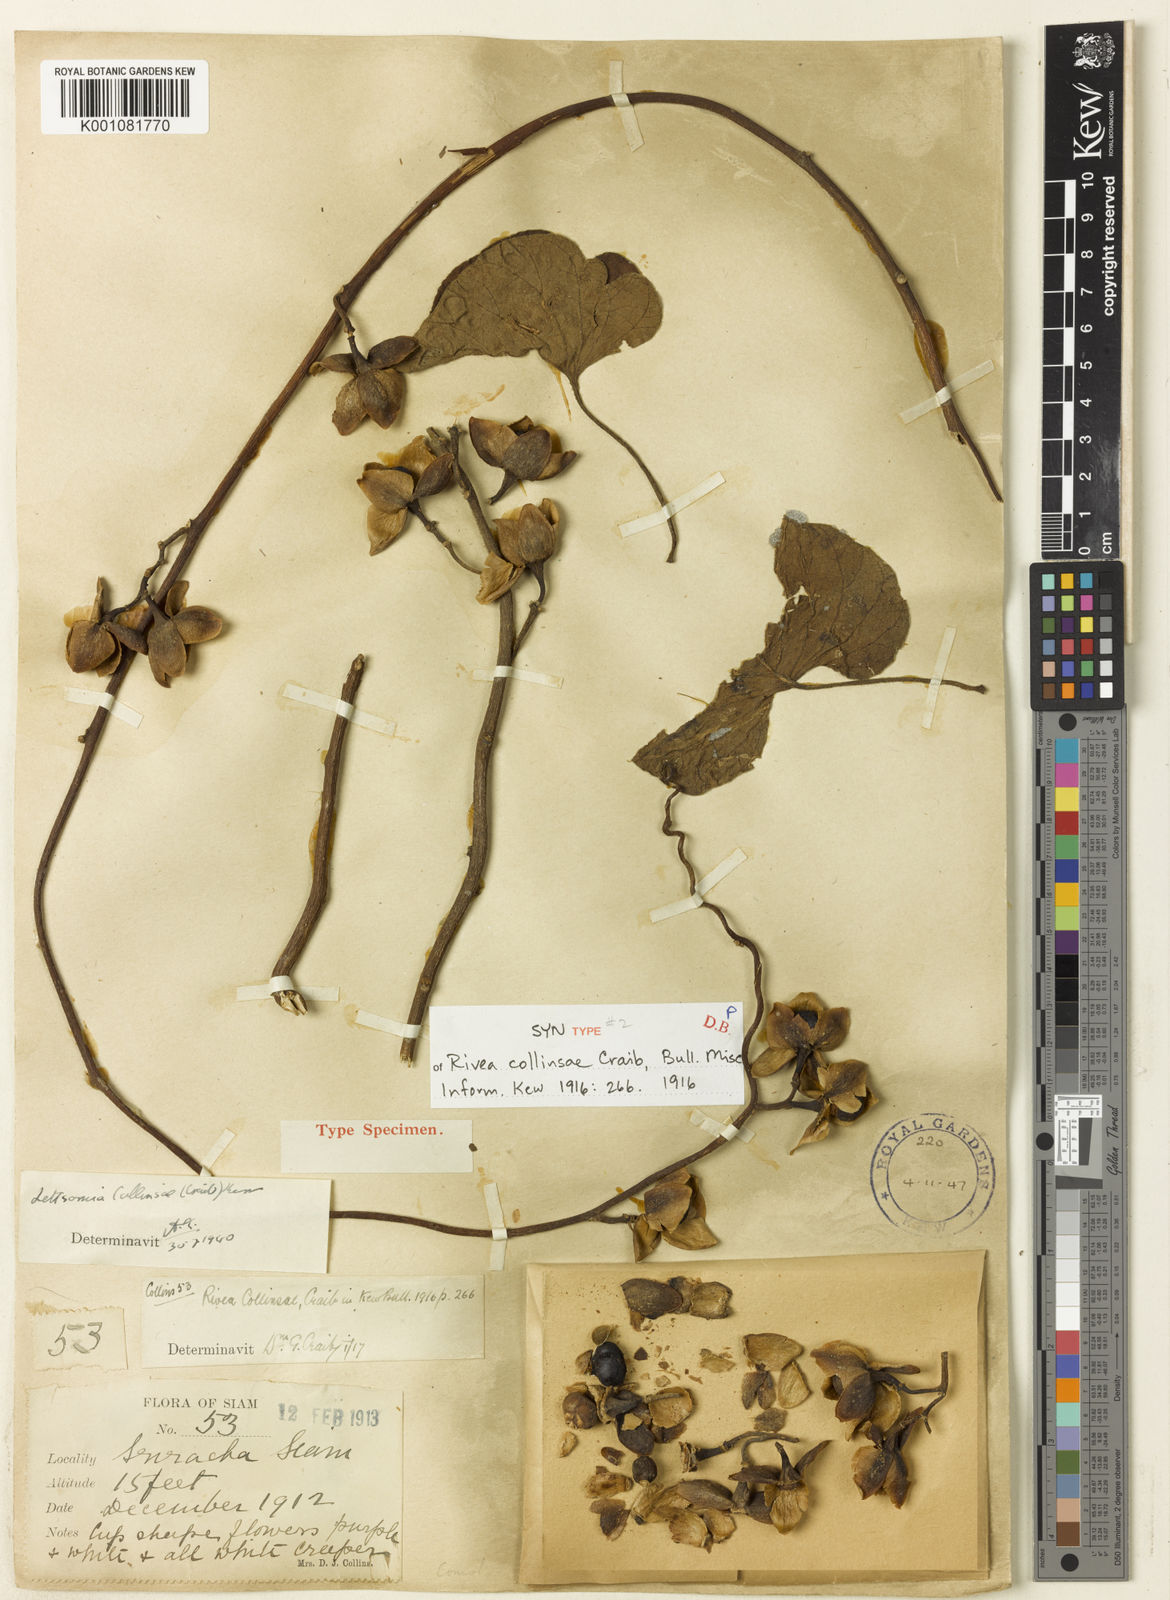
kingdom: Plantae
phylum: Tracheophyta
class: Magnoliopsida
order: Solanales
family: Convolvulaceae
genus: Argyreia
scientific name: Argyreia collinsiae
